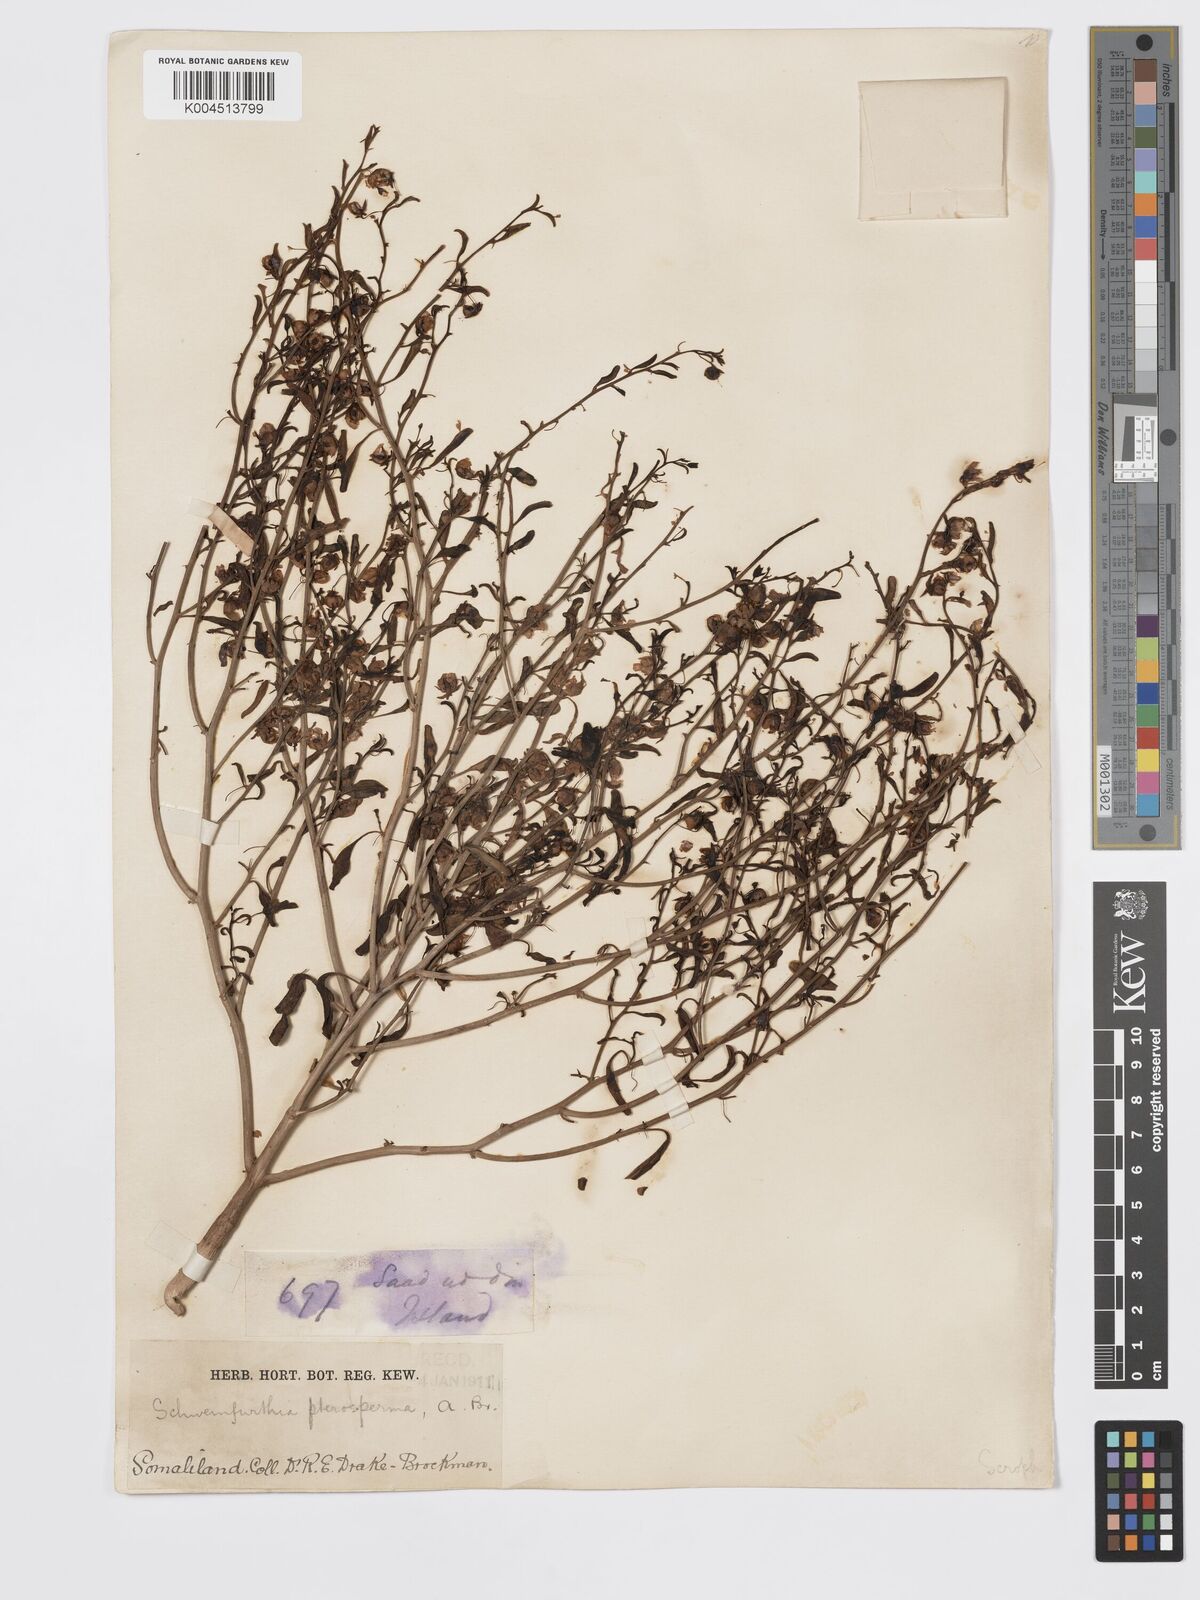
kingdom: Plantae
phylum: Tracheophyta
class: Magnoliopsida
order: Lamiales
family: Plantaginaceae
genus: Schweinfurthia
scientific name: Schweinfurthia pterosperma
